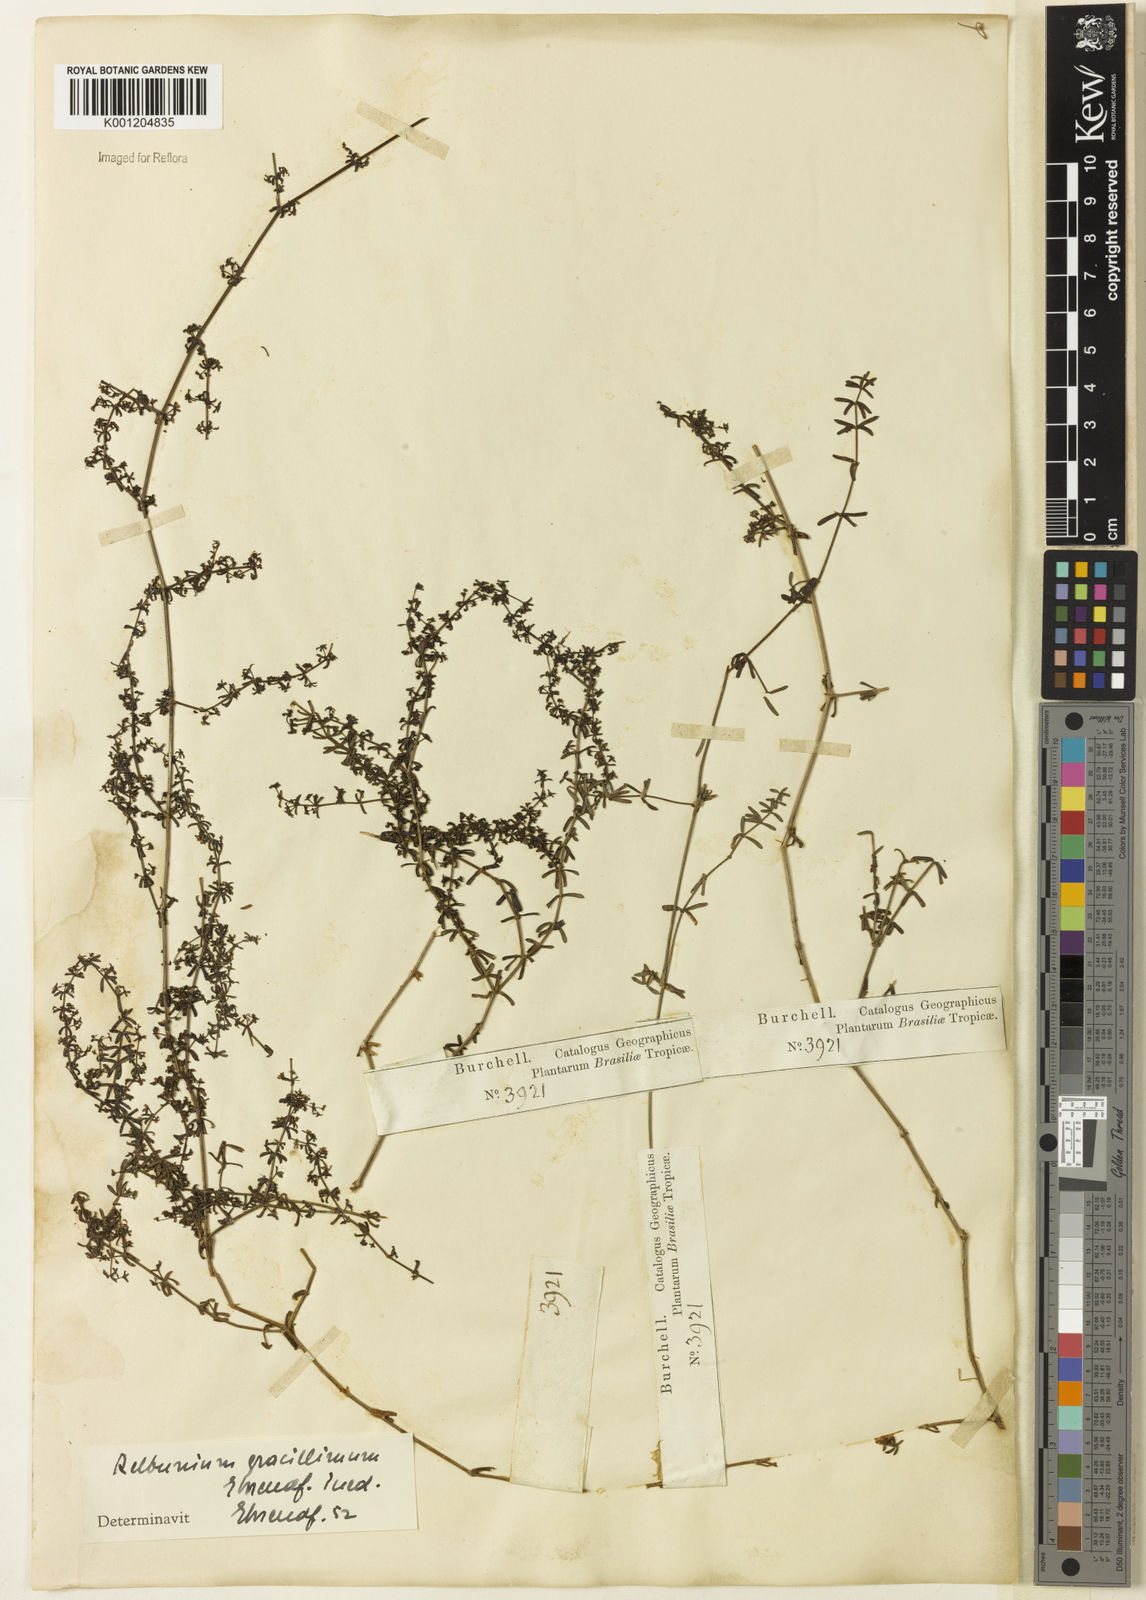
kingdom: Plantae
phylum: Tracheophyta
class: Magnoliopsida
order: Gentianales
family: Rubiaceae
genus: Galium
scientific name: Galium hypocarpium
